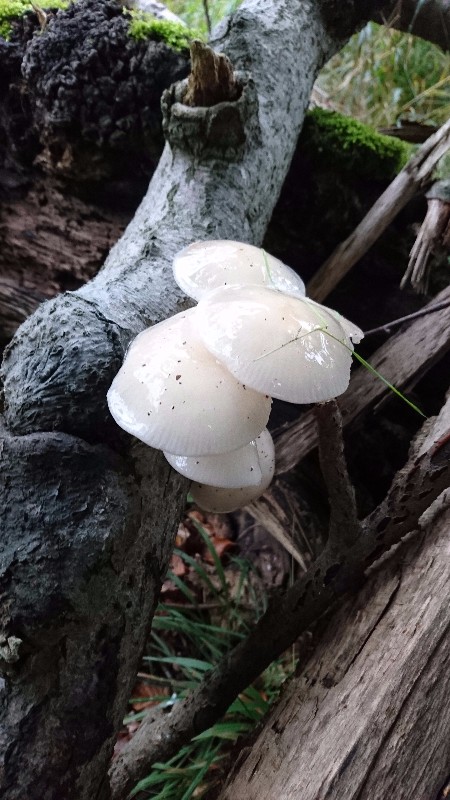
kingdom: Fungi
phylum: Basidiomycota
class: Agaricomycetes
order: Agaricales
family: Physalacriaceae
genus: Mucidula
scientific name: Mucidula mucida
